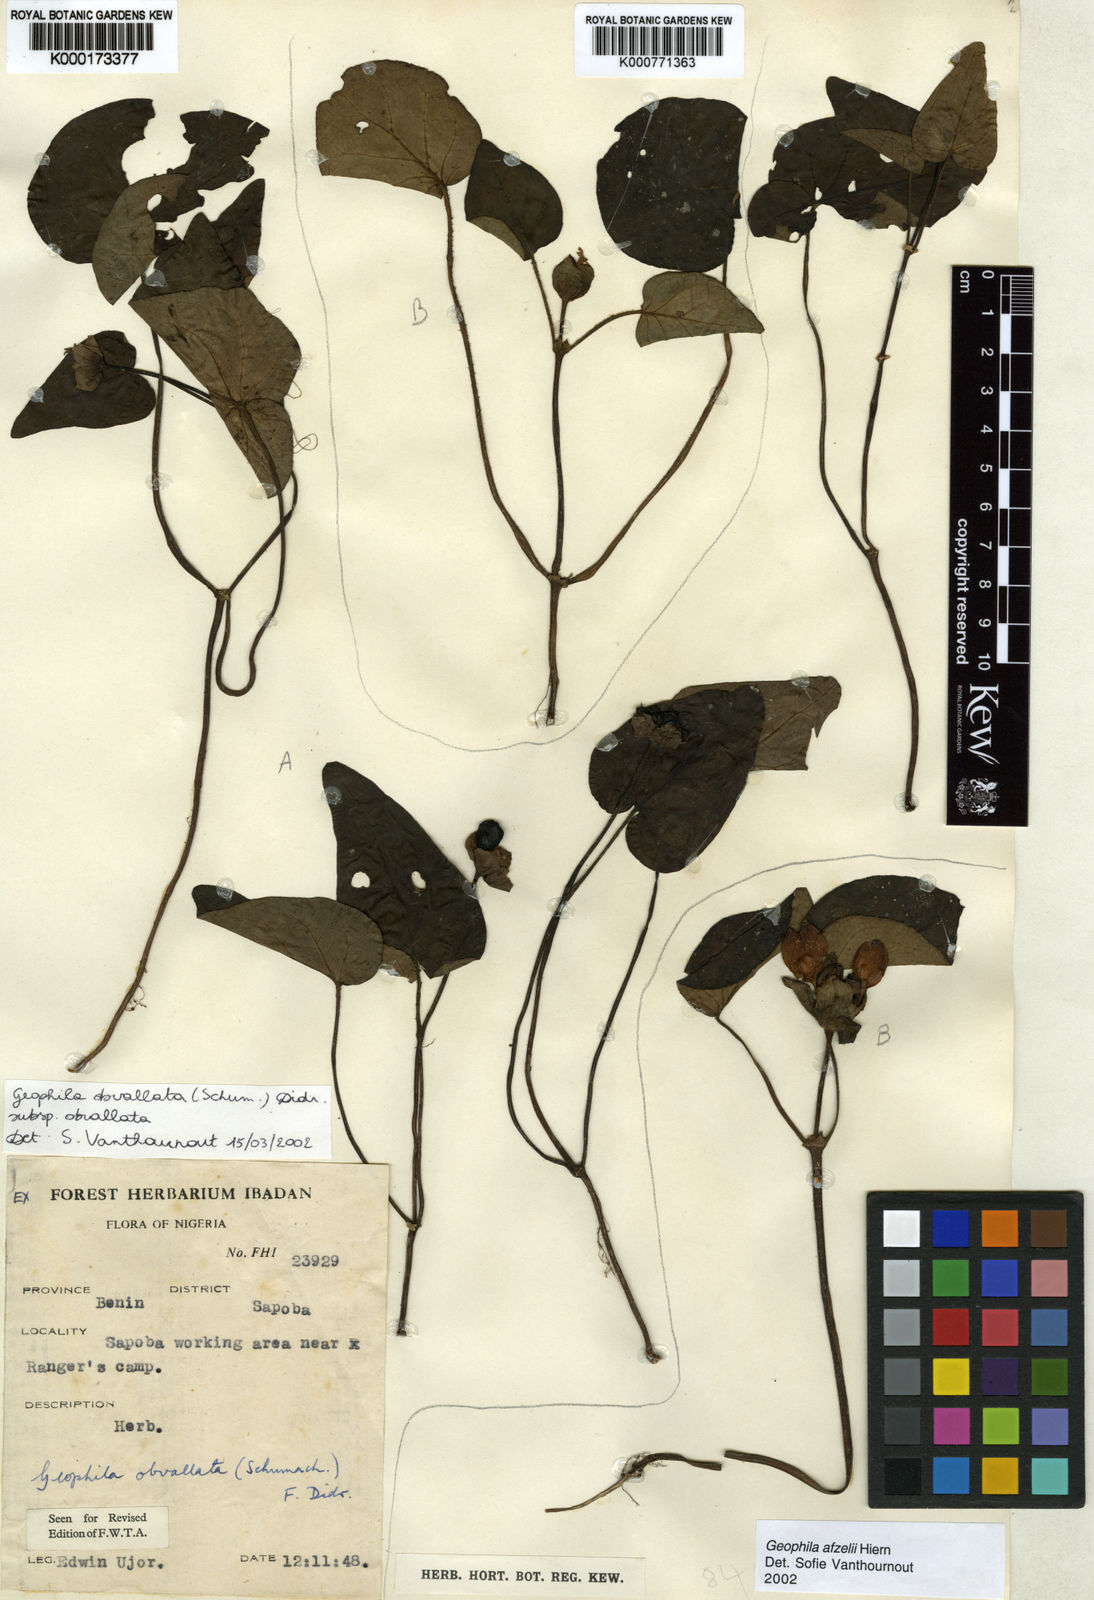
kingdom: Plantae
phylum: Tracheophyta
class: Magnoliopsida
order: Gentianales
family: Rubiaceae
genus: Geophila
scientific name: Geophila afzelii
